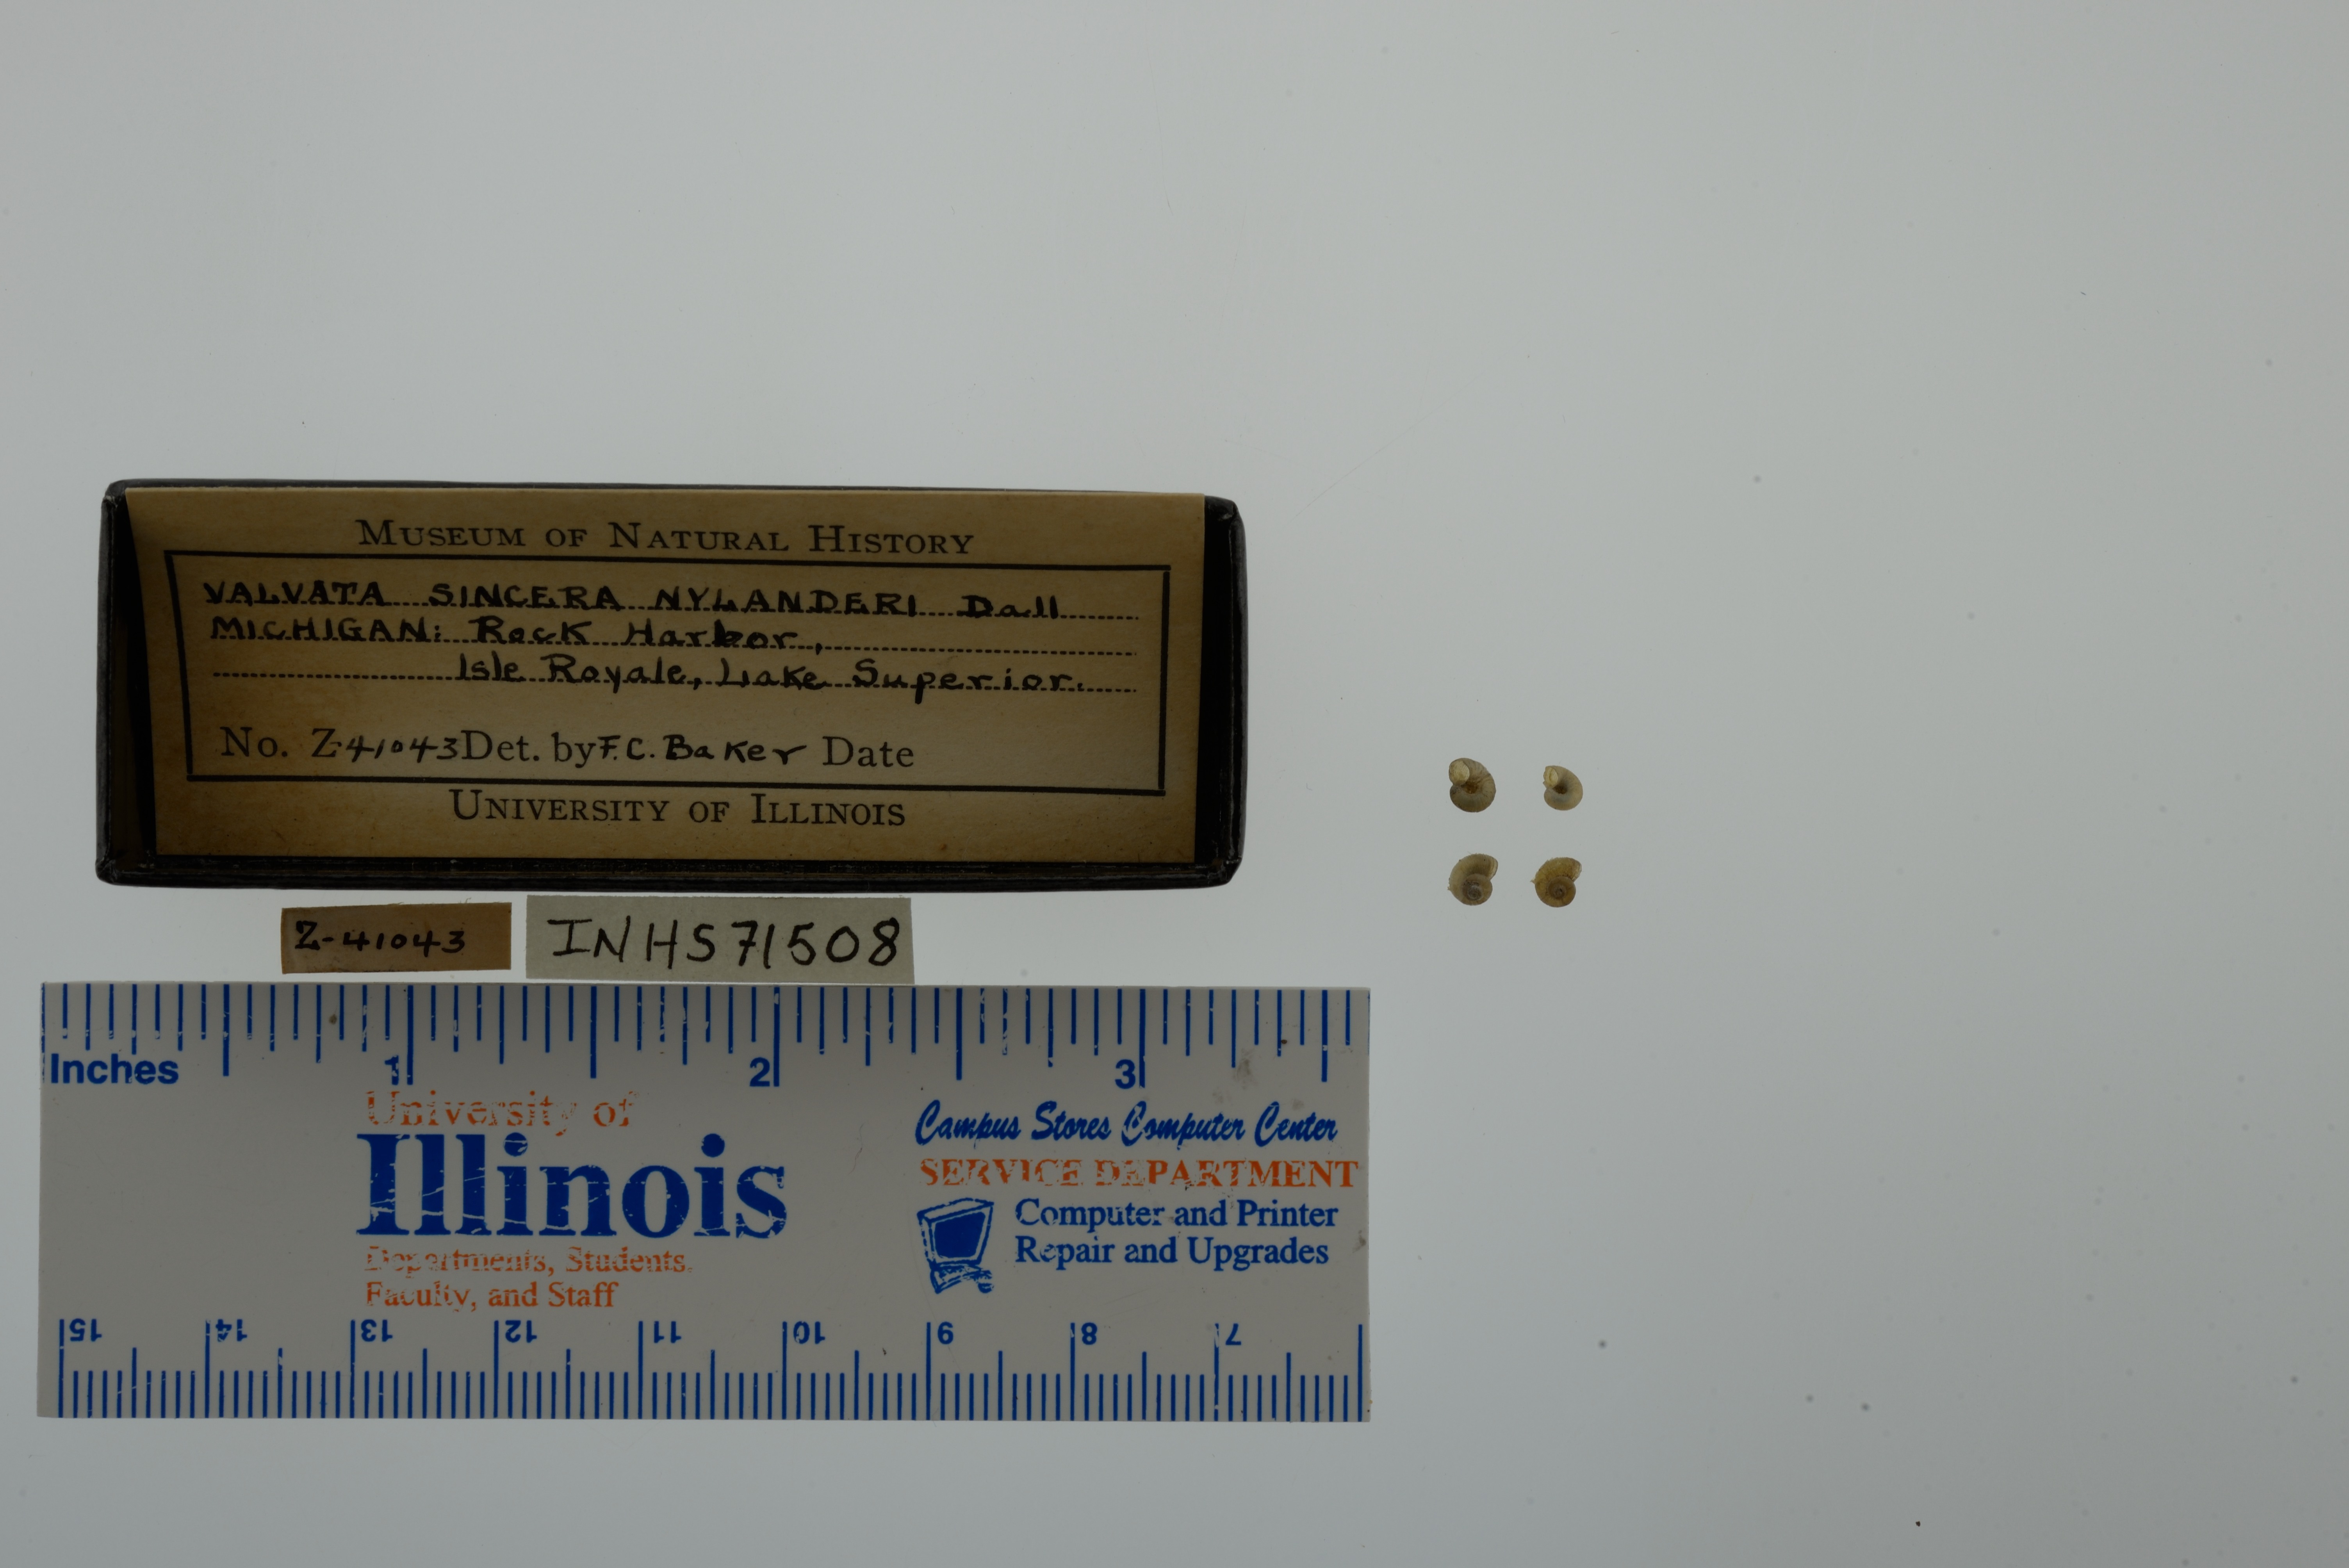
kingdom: Animalia
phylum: Mollusca
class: Gastropoda
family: Valvatidae
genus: Valvata
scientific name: Valvata sincera
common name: Mossy valvata
